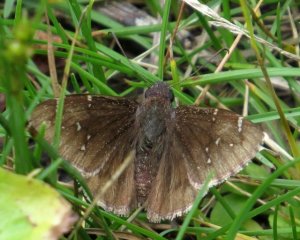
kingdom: Animalia
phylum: Arthropoda
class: Insecta
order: Lepidoptera
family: Hesperiidae
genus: Autochton
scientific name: Autochton
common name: Northern Cloudywing
